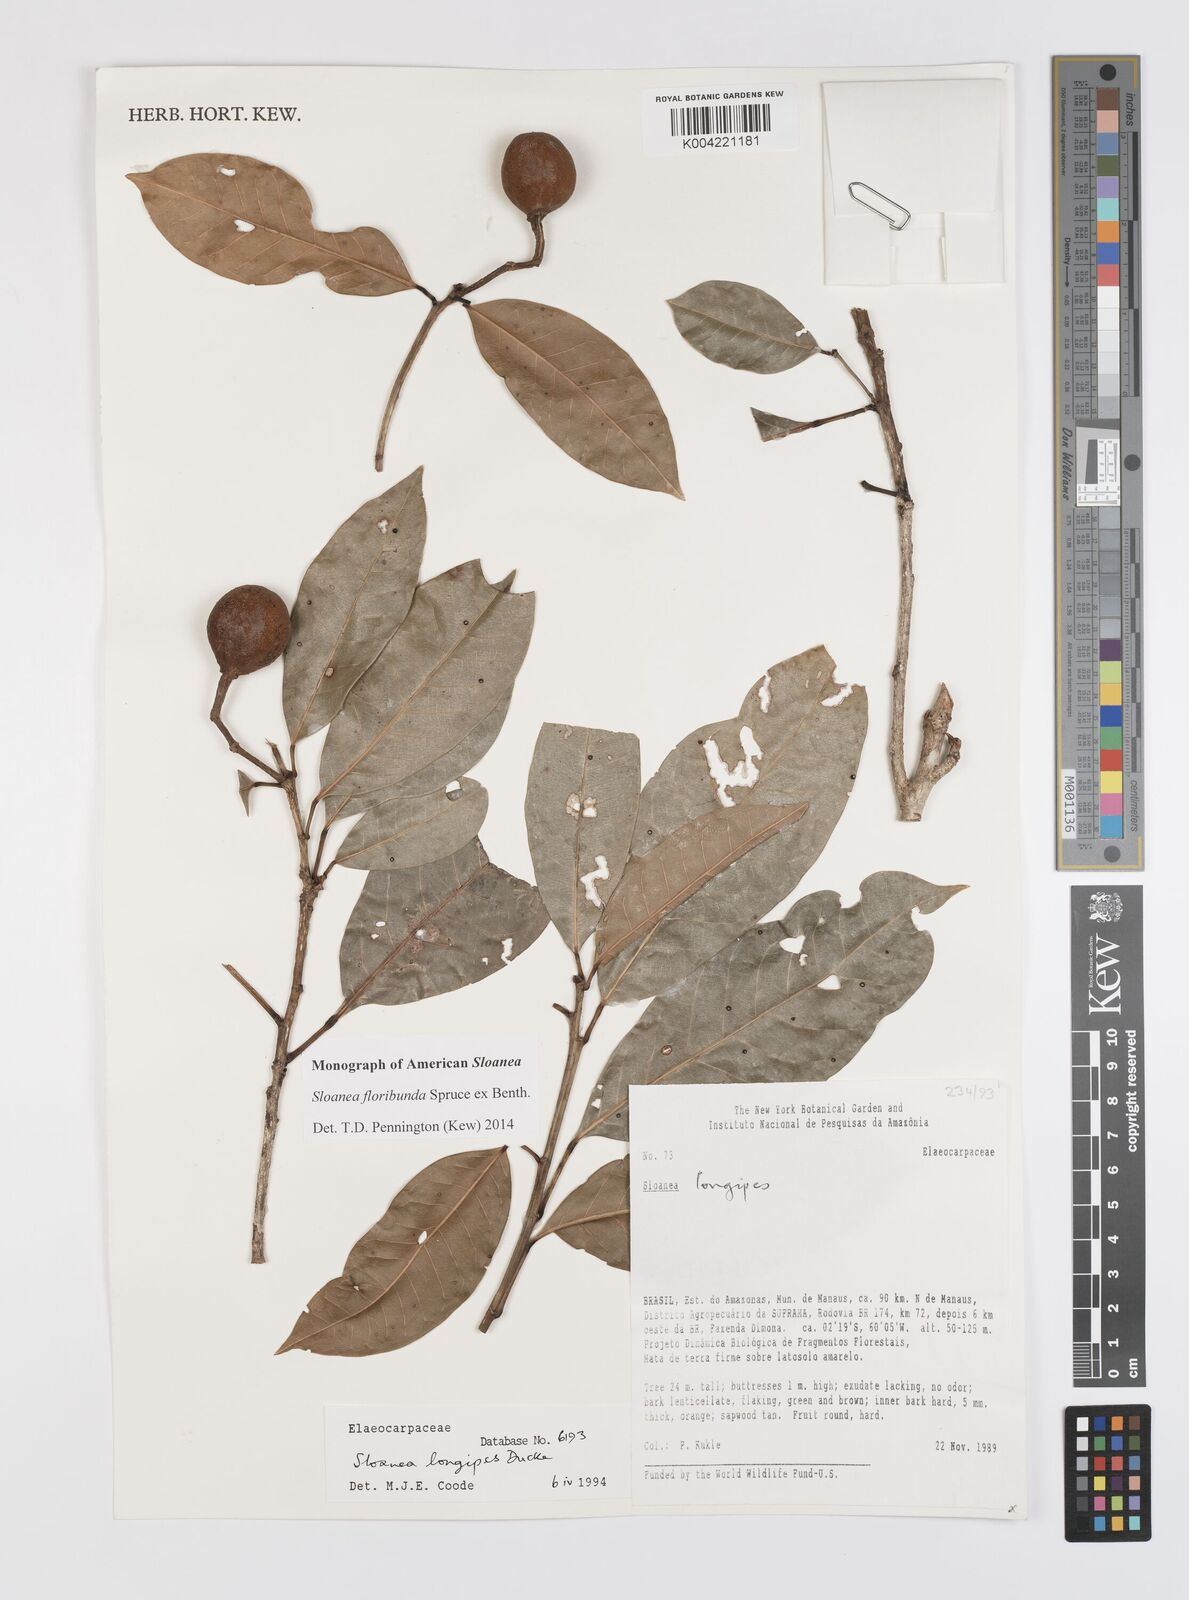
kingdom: Plantae
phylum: Tracheophyta
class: Magnoliopsida
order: Oxalidales
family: Elaeocarpaceae
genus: Sloanea
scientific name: Sloanea floribunda
